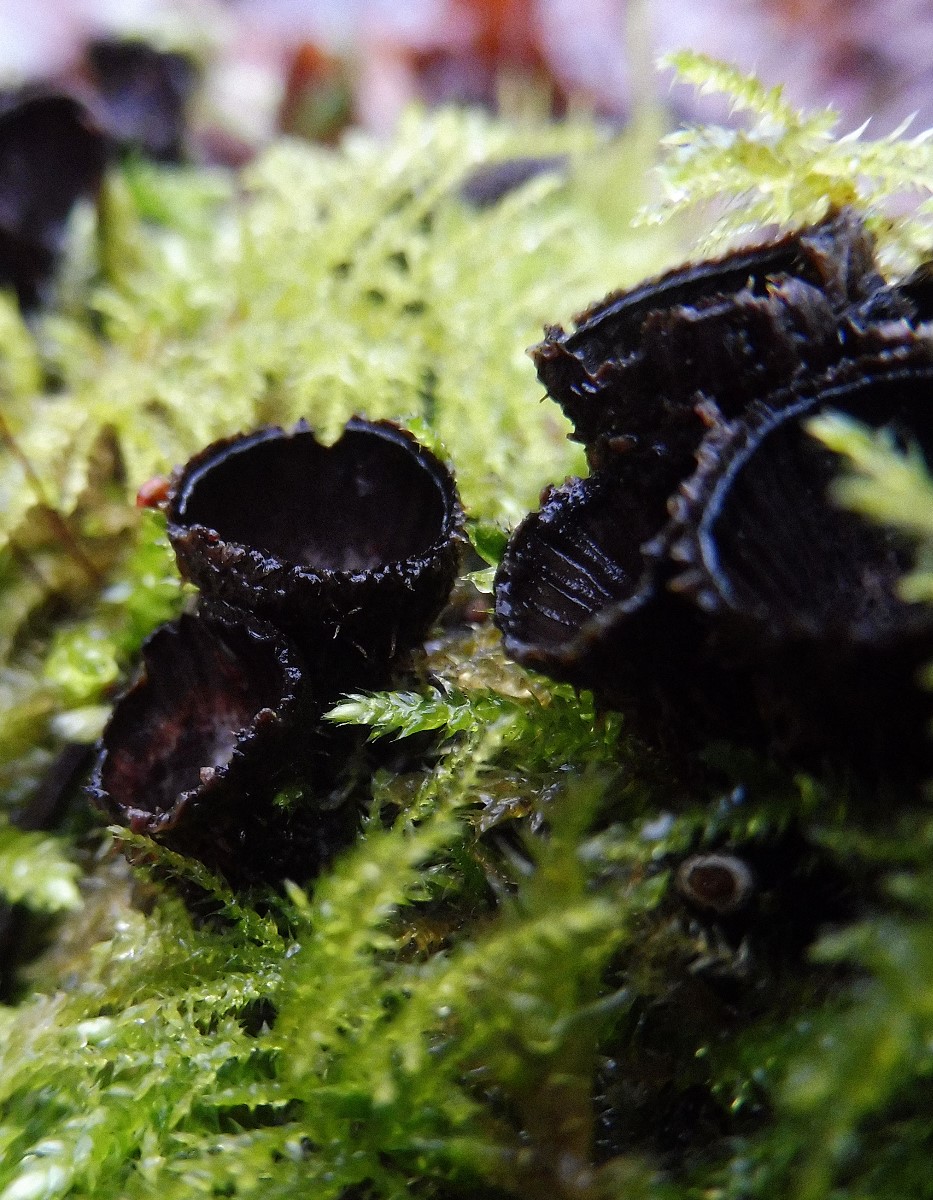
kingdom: Fungi
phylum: Basidiomycota
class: Agaricomycetes
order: Agaricales
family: Agaricaceae
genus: Cyathus
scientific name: Cyathus striatus
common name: stribet redesvamp
